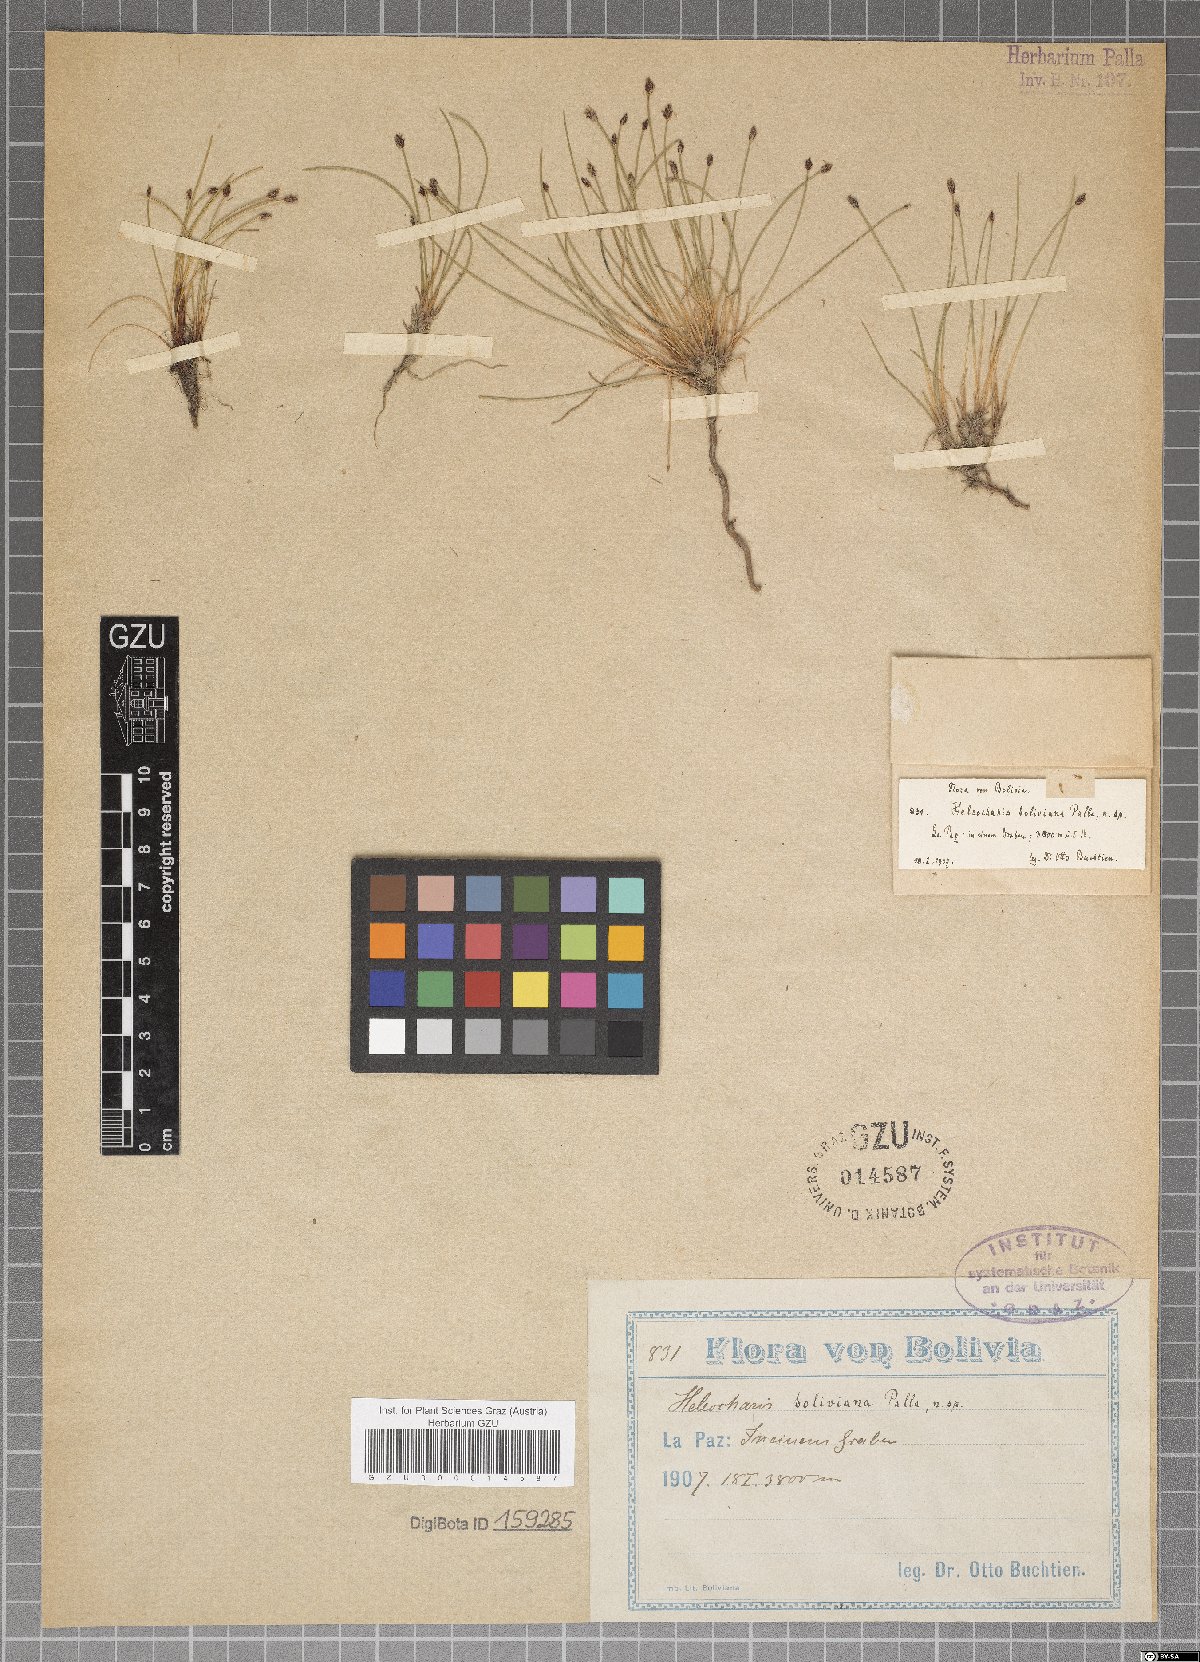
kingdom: Plantae
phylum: Tracheophyta
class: Liliopsida
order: Poales
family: Cyperaceae
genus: Eleocharis
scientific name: Eleocharis boliviana
